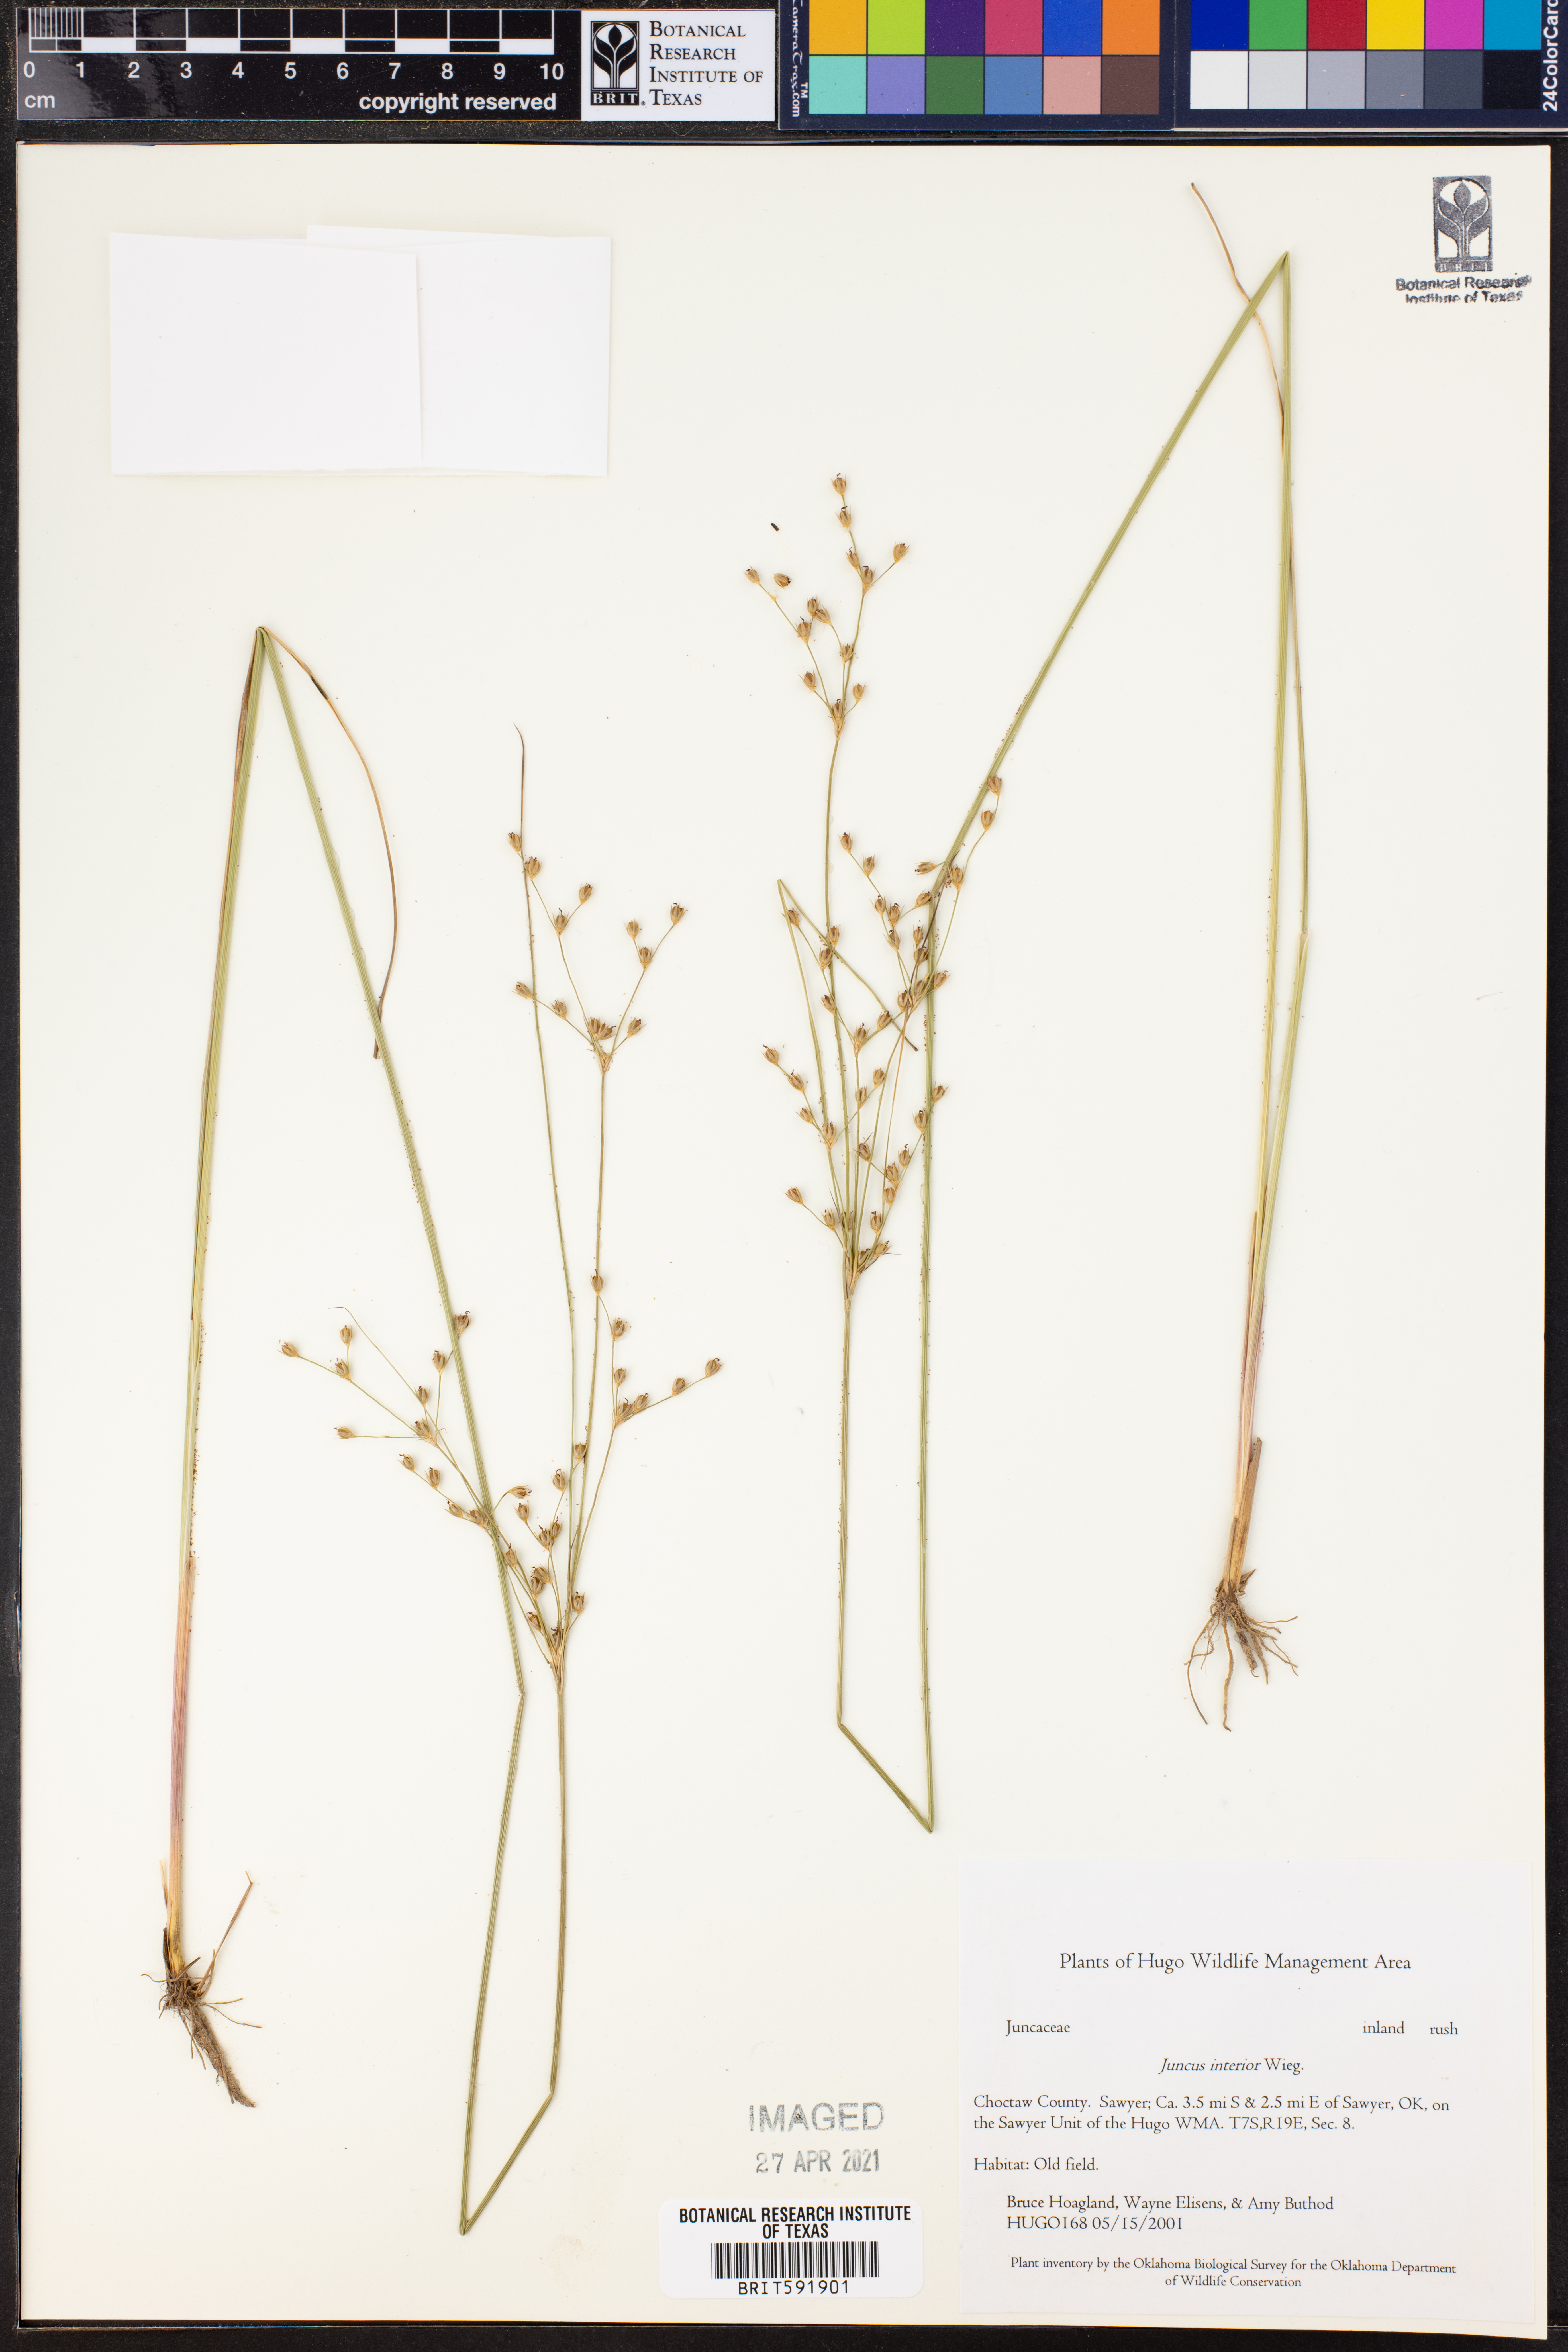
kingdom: Plantae
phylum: Tracheophyta
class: Liliopsida
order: Poales
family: Juncaceae
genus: Juncus
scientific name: Juncus interior
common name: Interior rush
